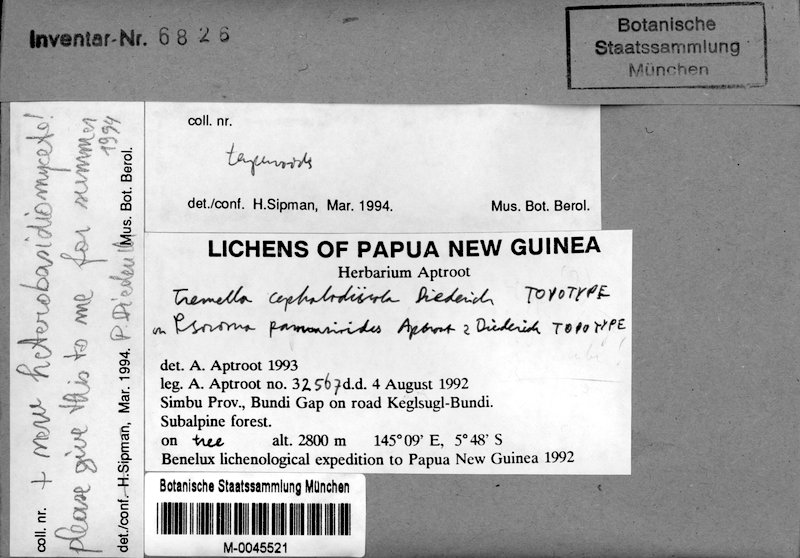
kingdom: Fungi
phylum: Basidiomycota
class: Tremellomycetes
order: Tremellales
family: Tremellaceae
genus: Tremella
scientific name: Tremella cephalodiicola
